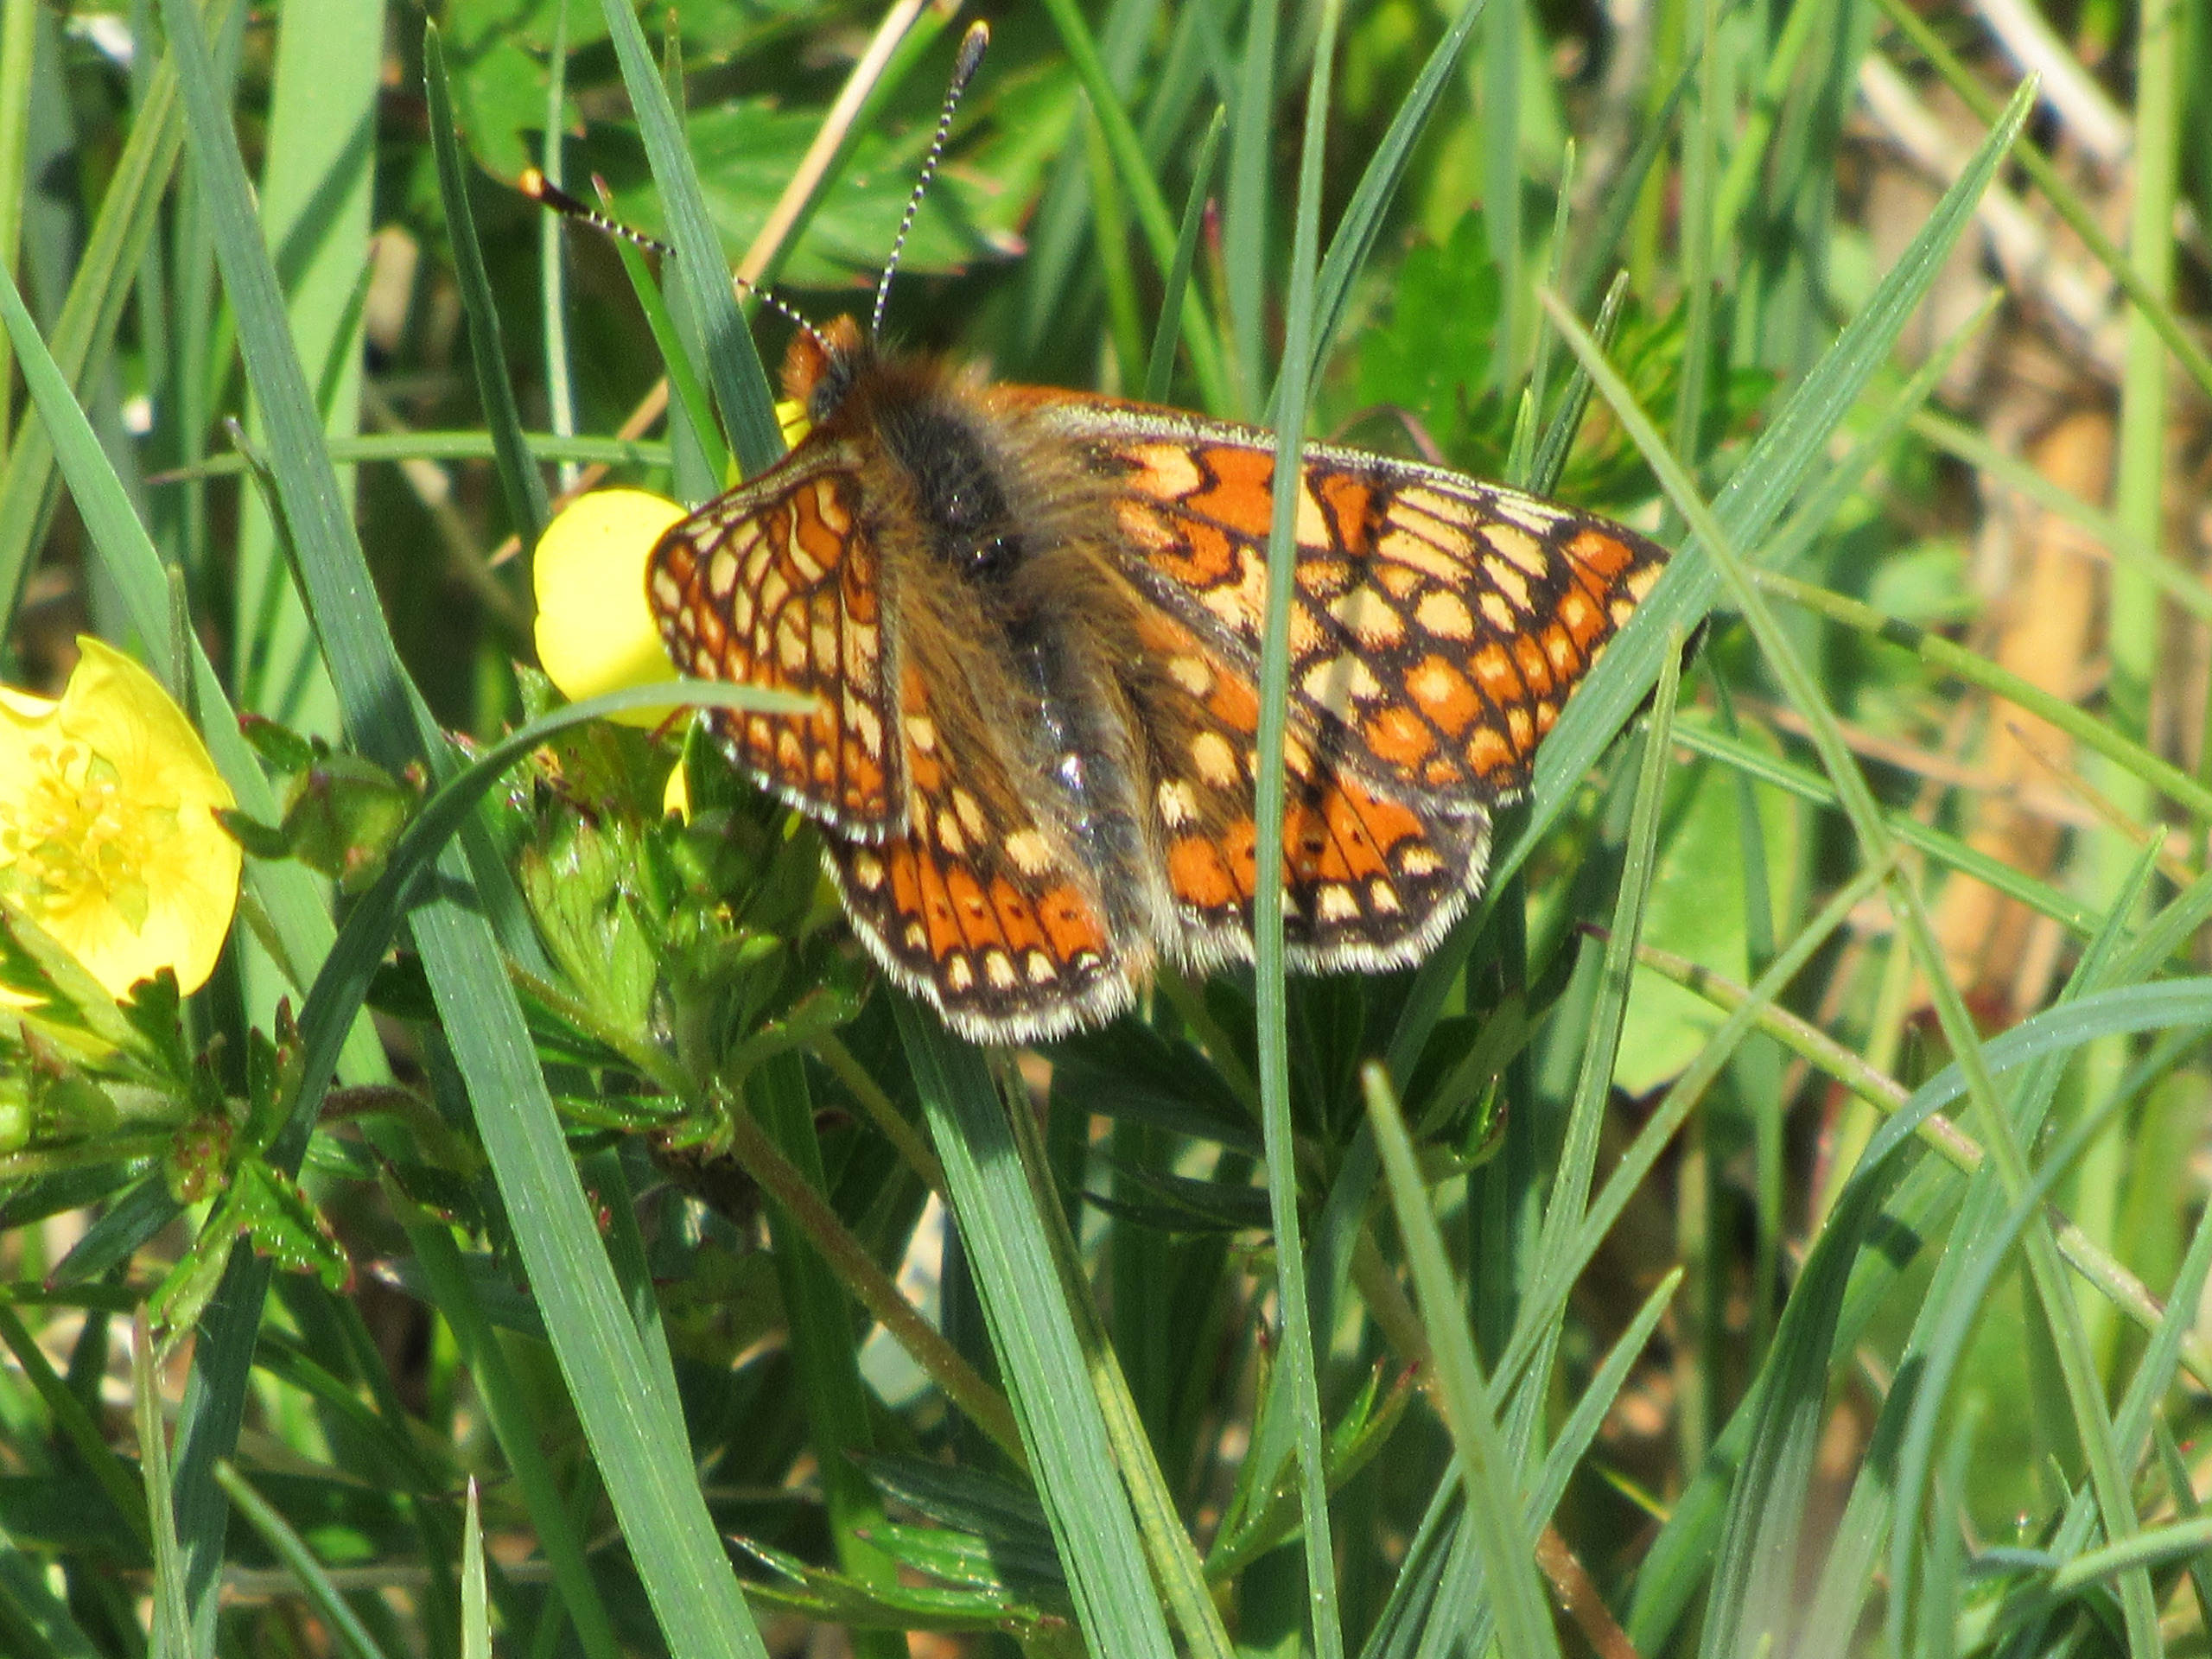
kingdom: Animalia
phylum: Arthropoda
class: Insecta
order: Lepidoptera
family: Nymphalidae
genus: Euphydryas
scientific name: Euphydryas aurinia
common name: Hedepletvinge
